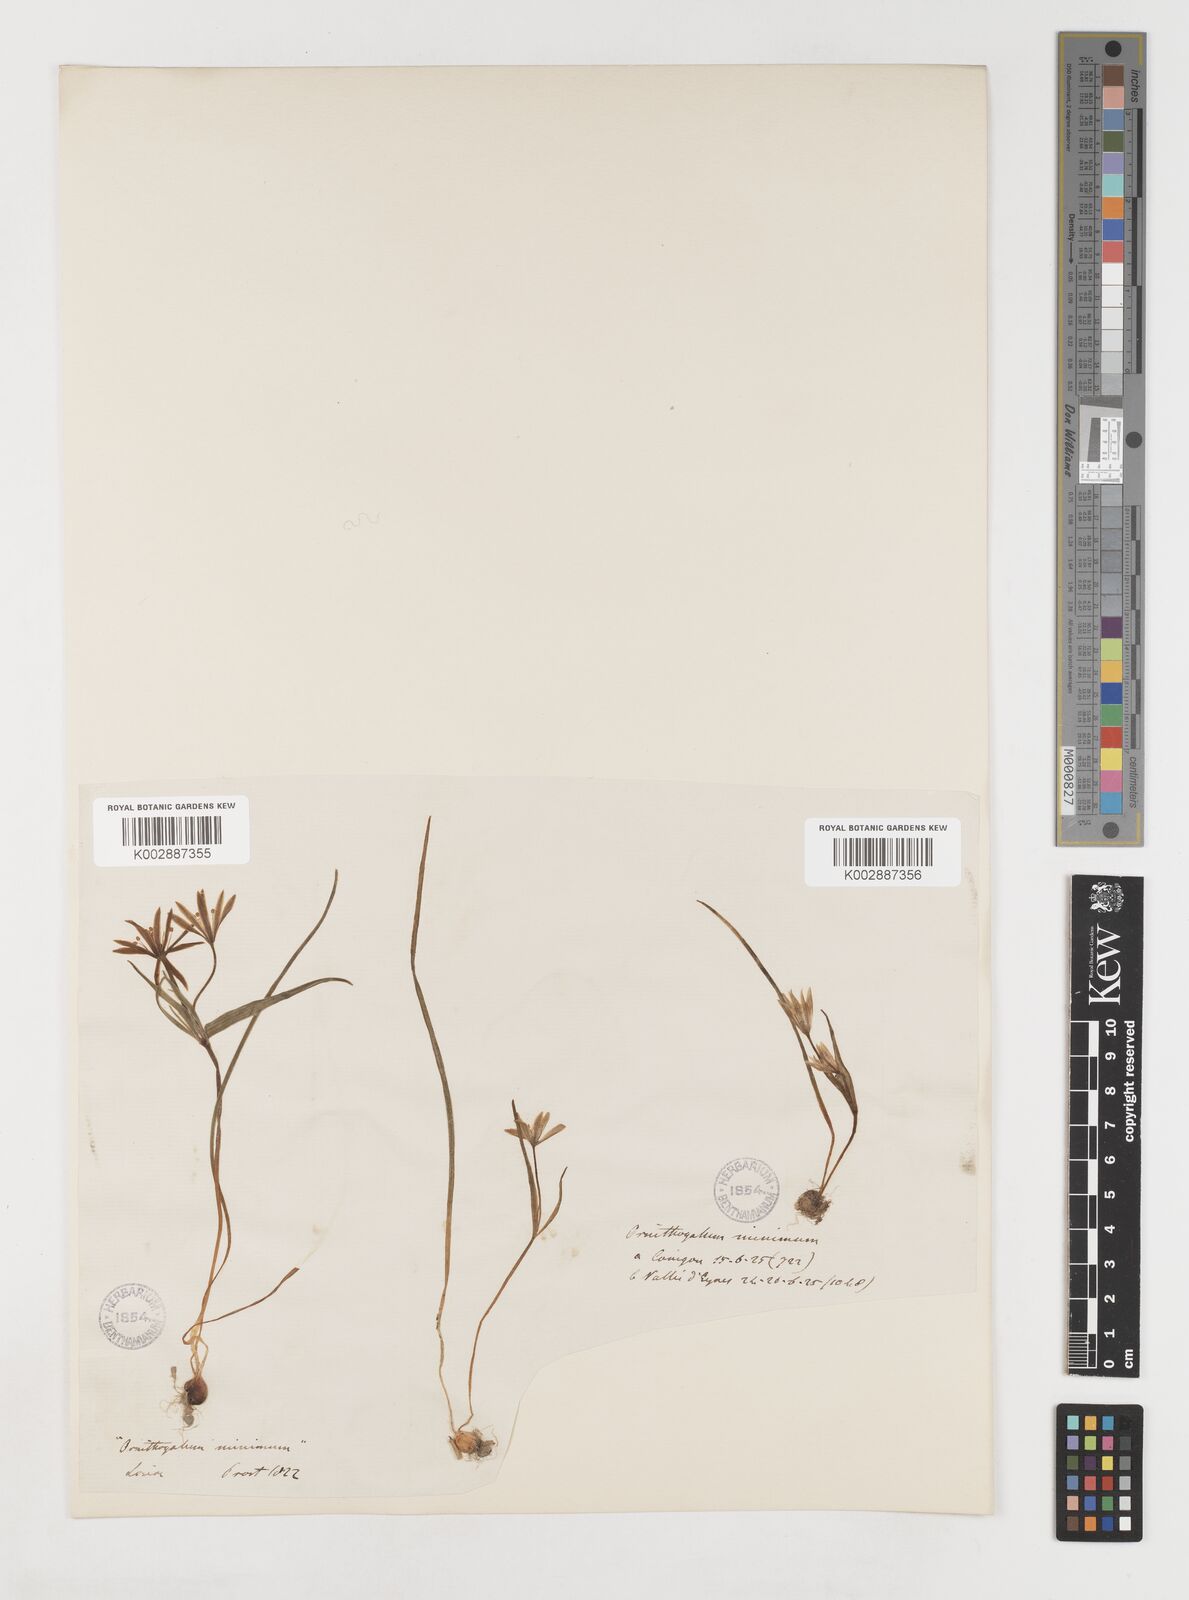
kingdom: Plantae
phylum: Tracheophyta
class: Liliopsida
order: Liliales
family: Liliaceae
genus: Gagea
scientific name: Gagea spathacea
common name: Belgian gagea
